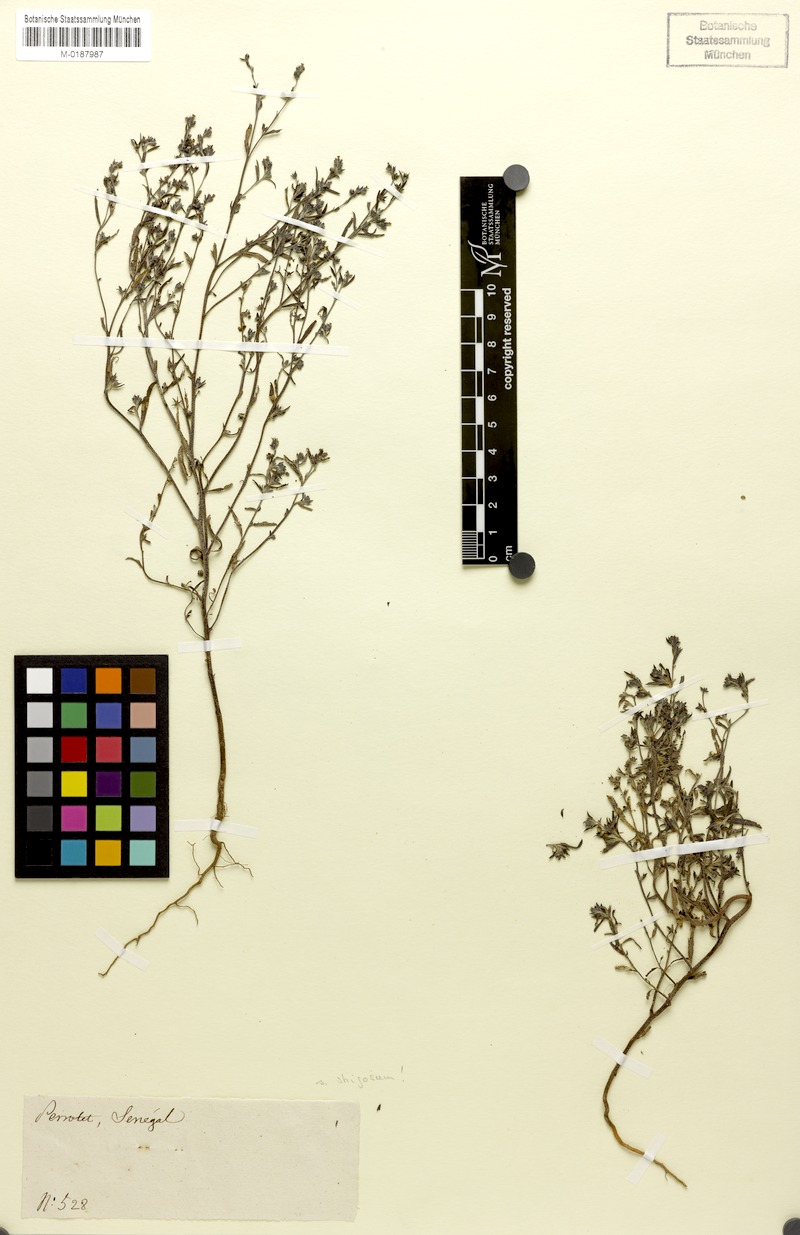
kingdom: Plantae
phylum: Tracheophyta
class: Magnoliopsida
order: Boraginales
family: Heliotropiaceae
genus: Euploca
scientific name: Euploca strigosa
